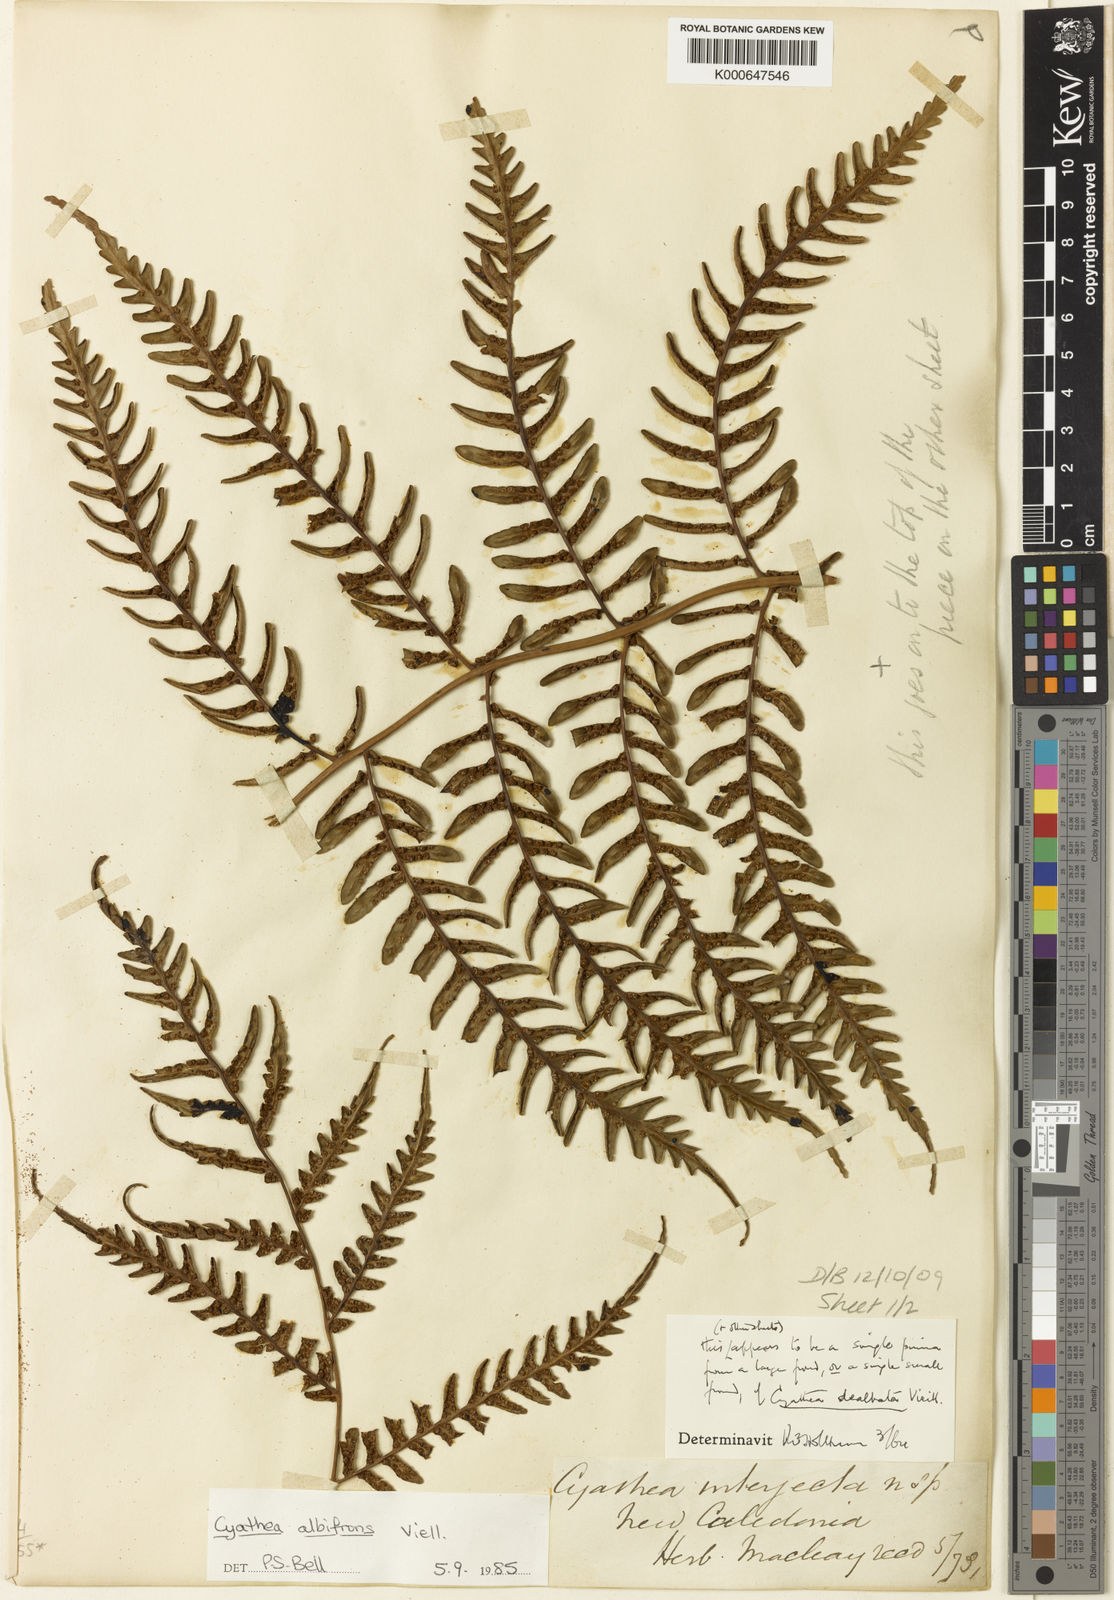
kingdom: Plantae
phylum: Tracheophyta
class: Polypodiopsida
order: Cyatheales
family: Cyatheaceae
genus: Cyathea
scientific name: Cyathea
